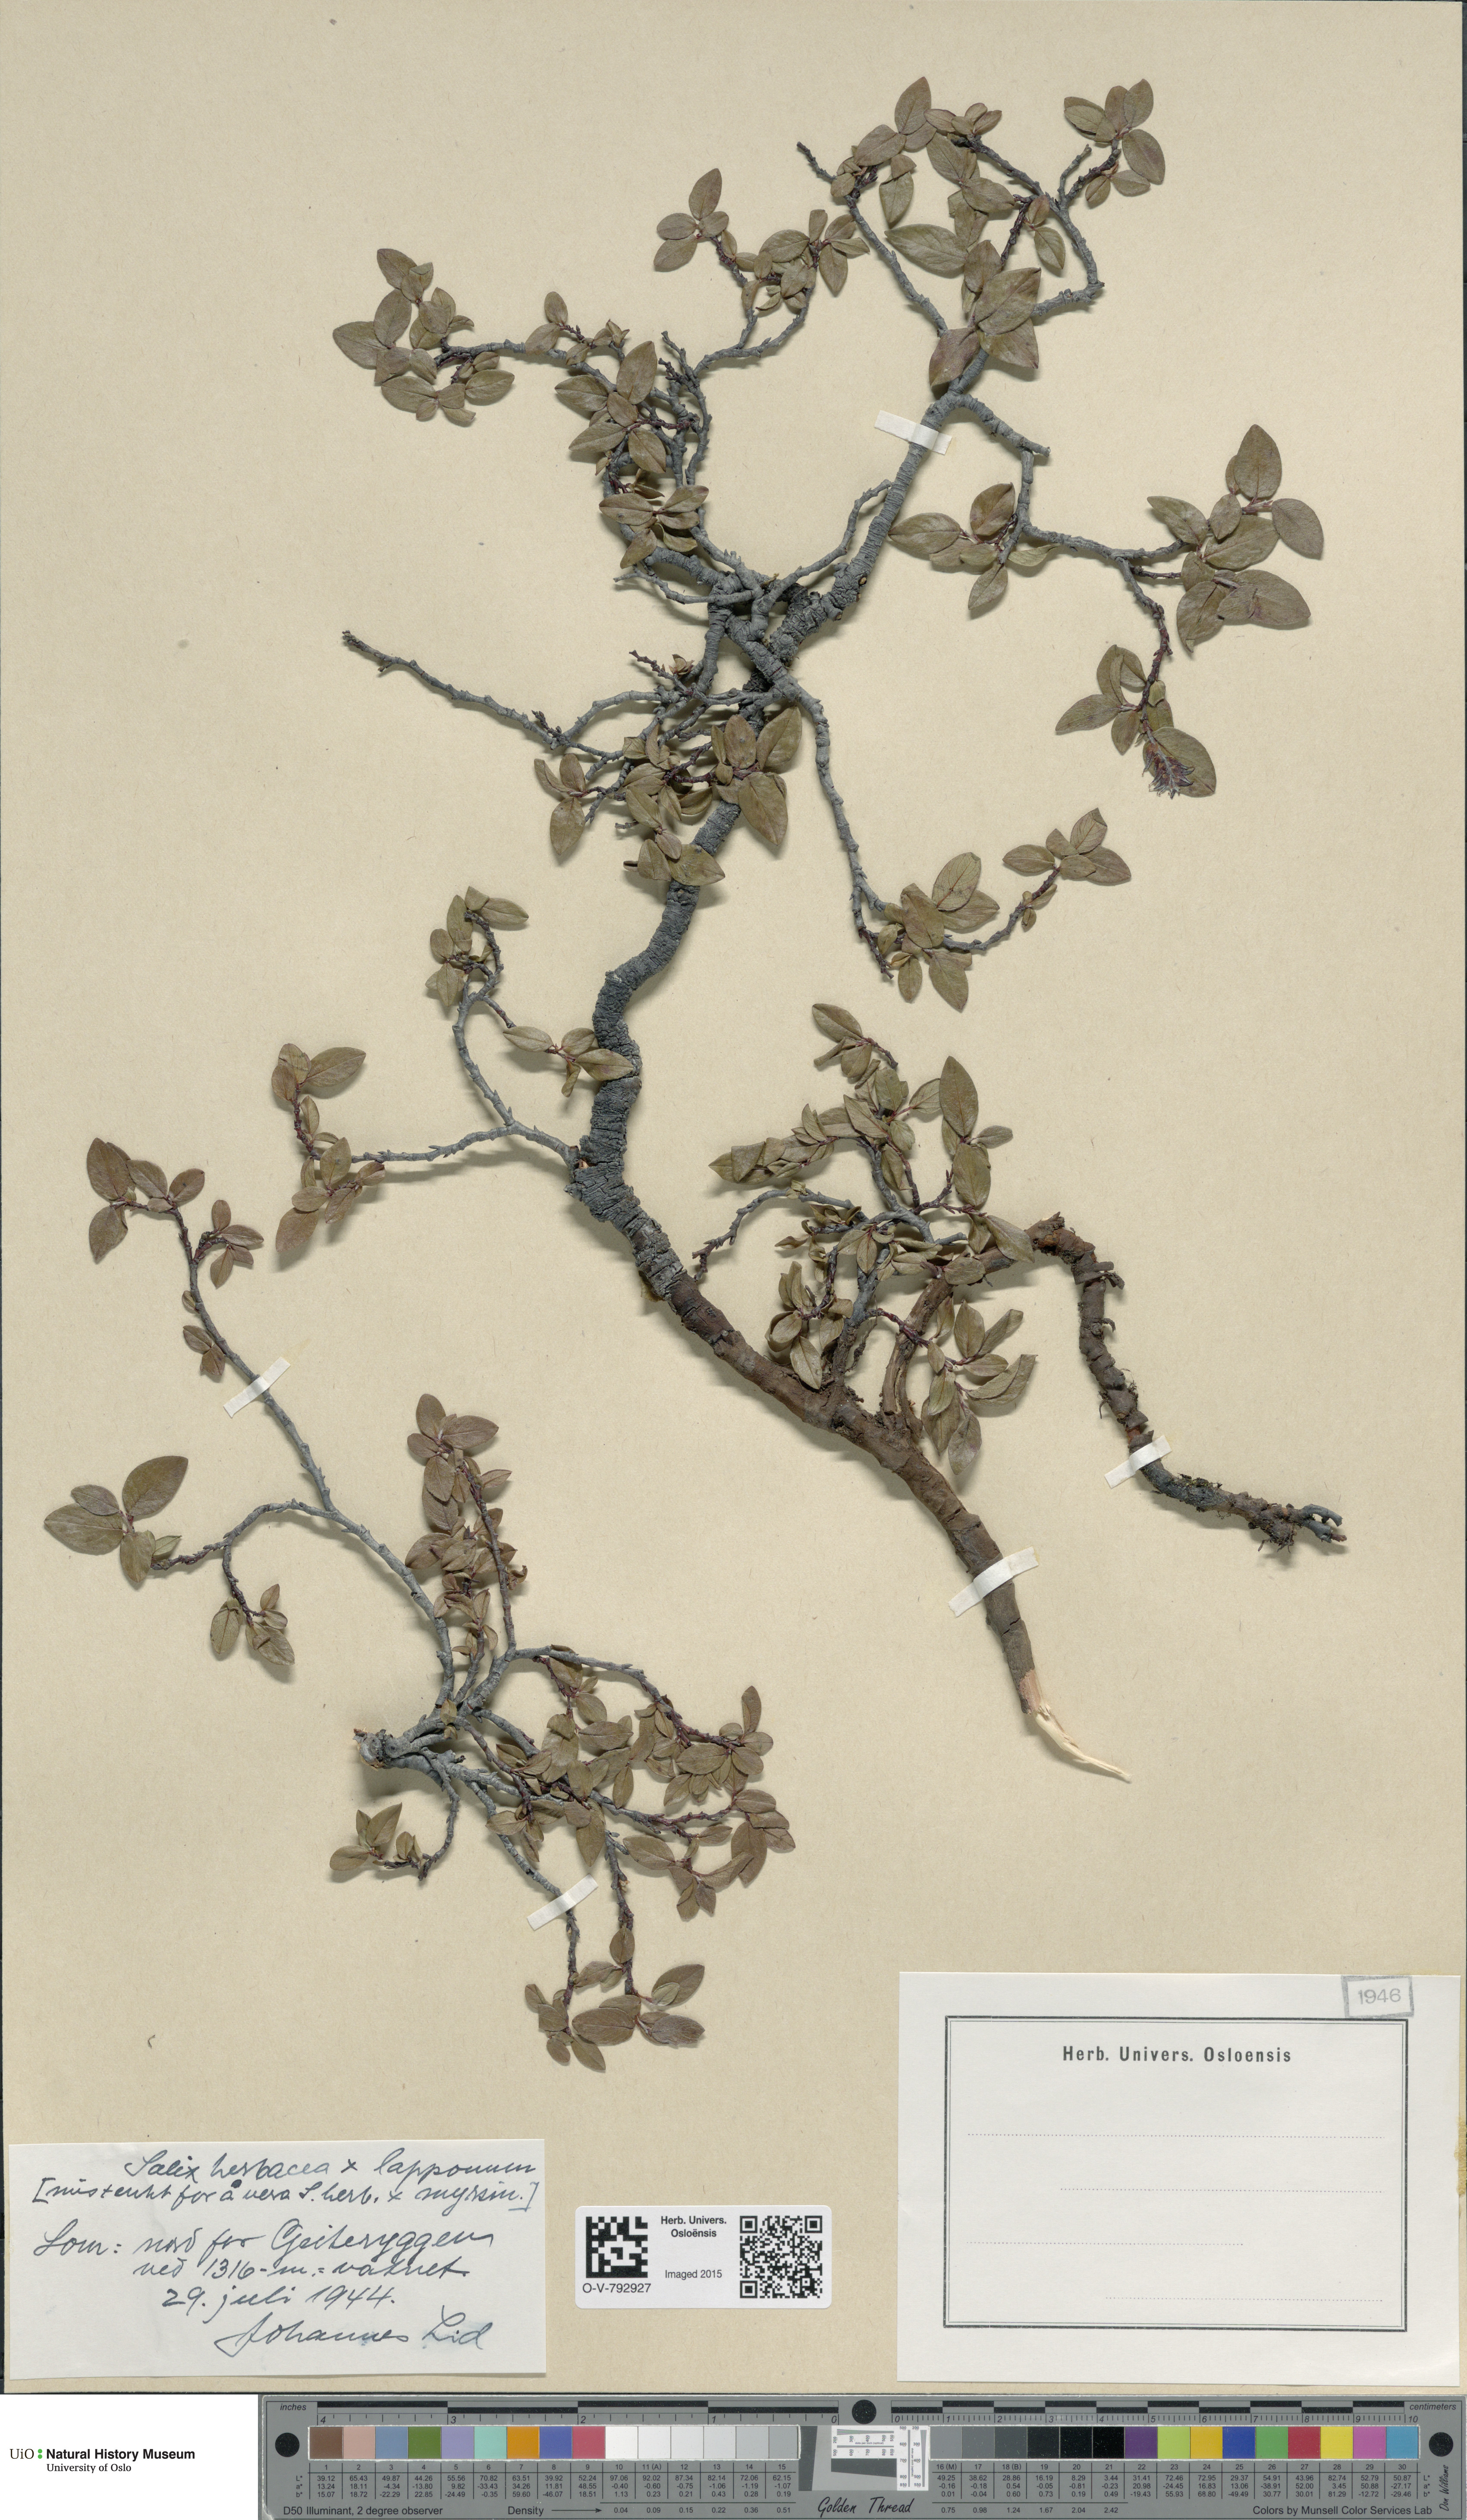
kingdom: Plantae
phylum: Tracheophyta
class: Magnoliopsida
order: Malpighiales
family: Salicaceae
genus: Salix
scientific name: Salix
